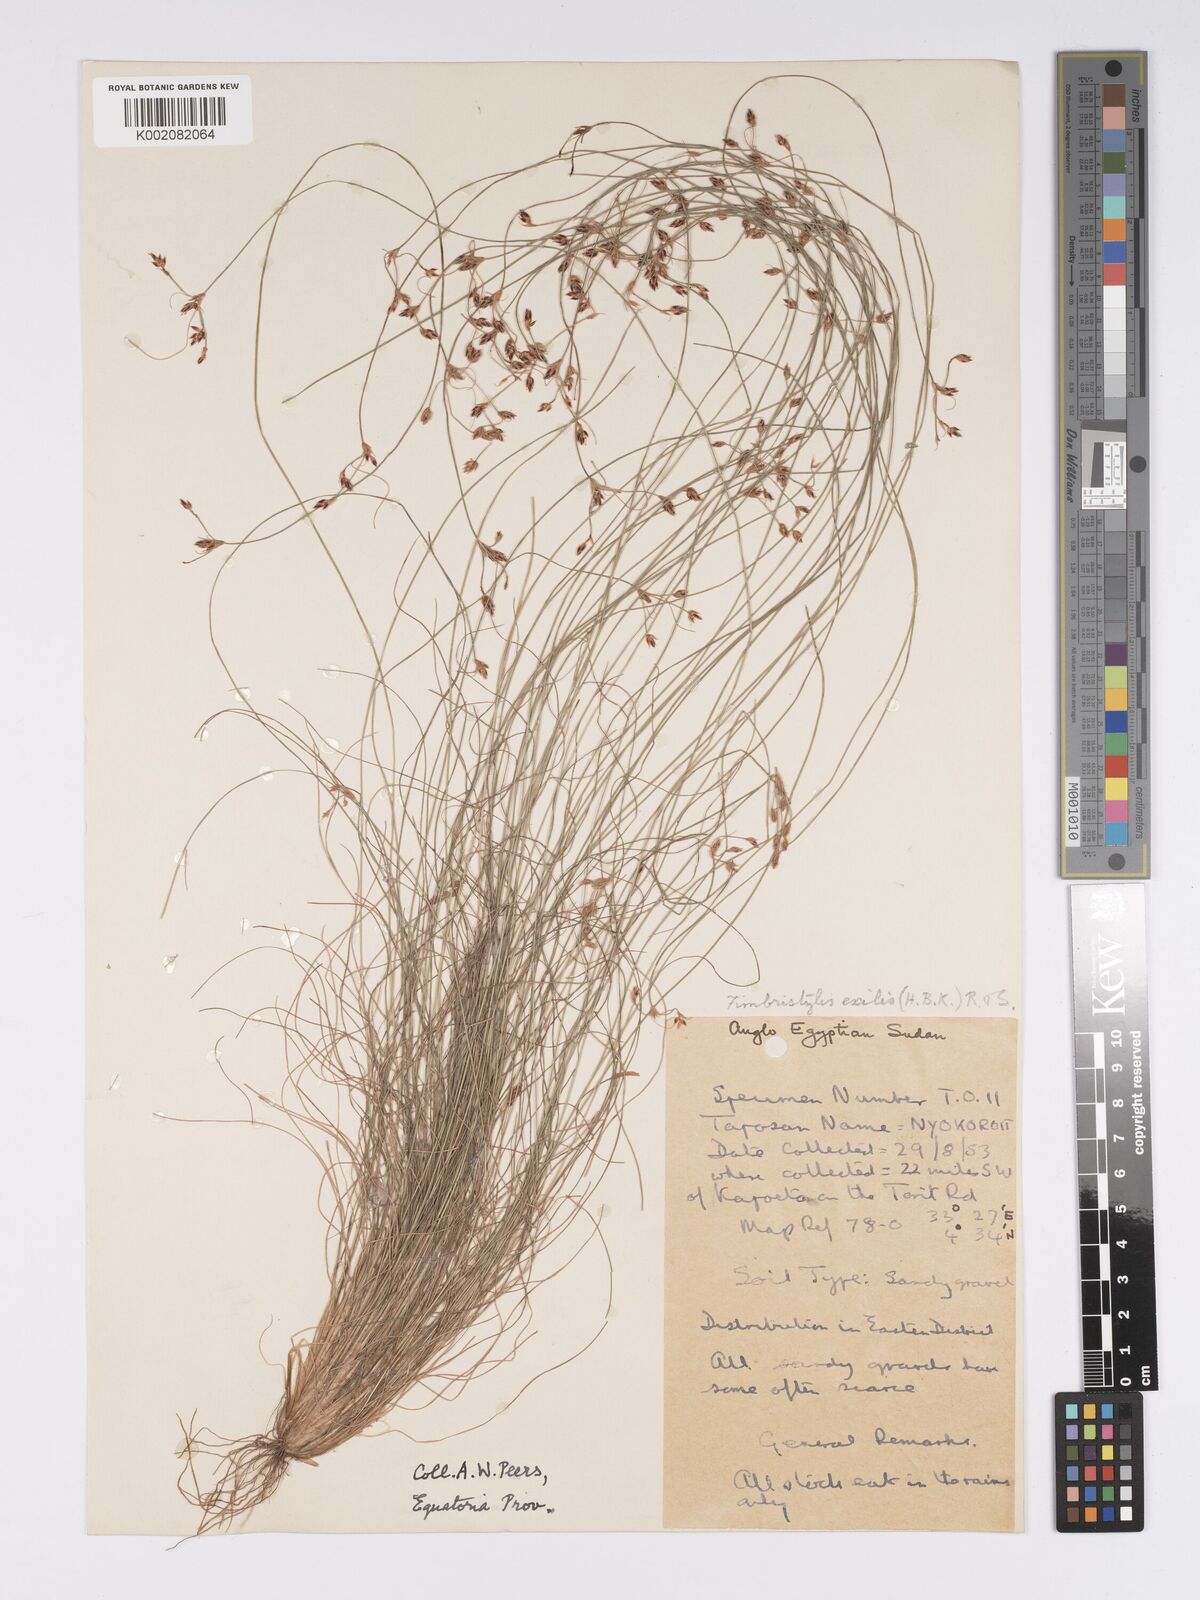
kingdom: Plantae
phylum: Tracheophyta
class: Liliopsida
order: Poales
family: Cyperaceae
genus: Bulbostylis
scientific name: Bulbostylis hispidula
